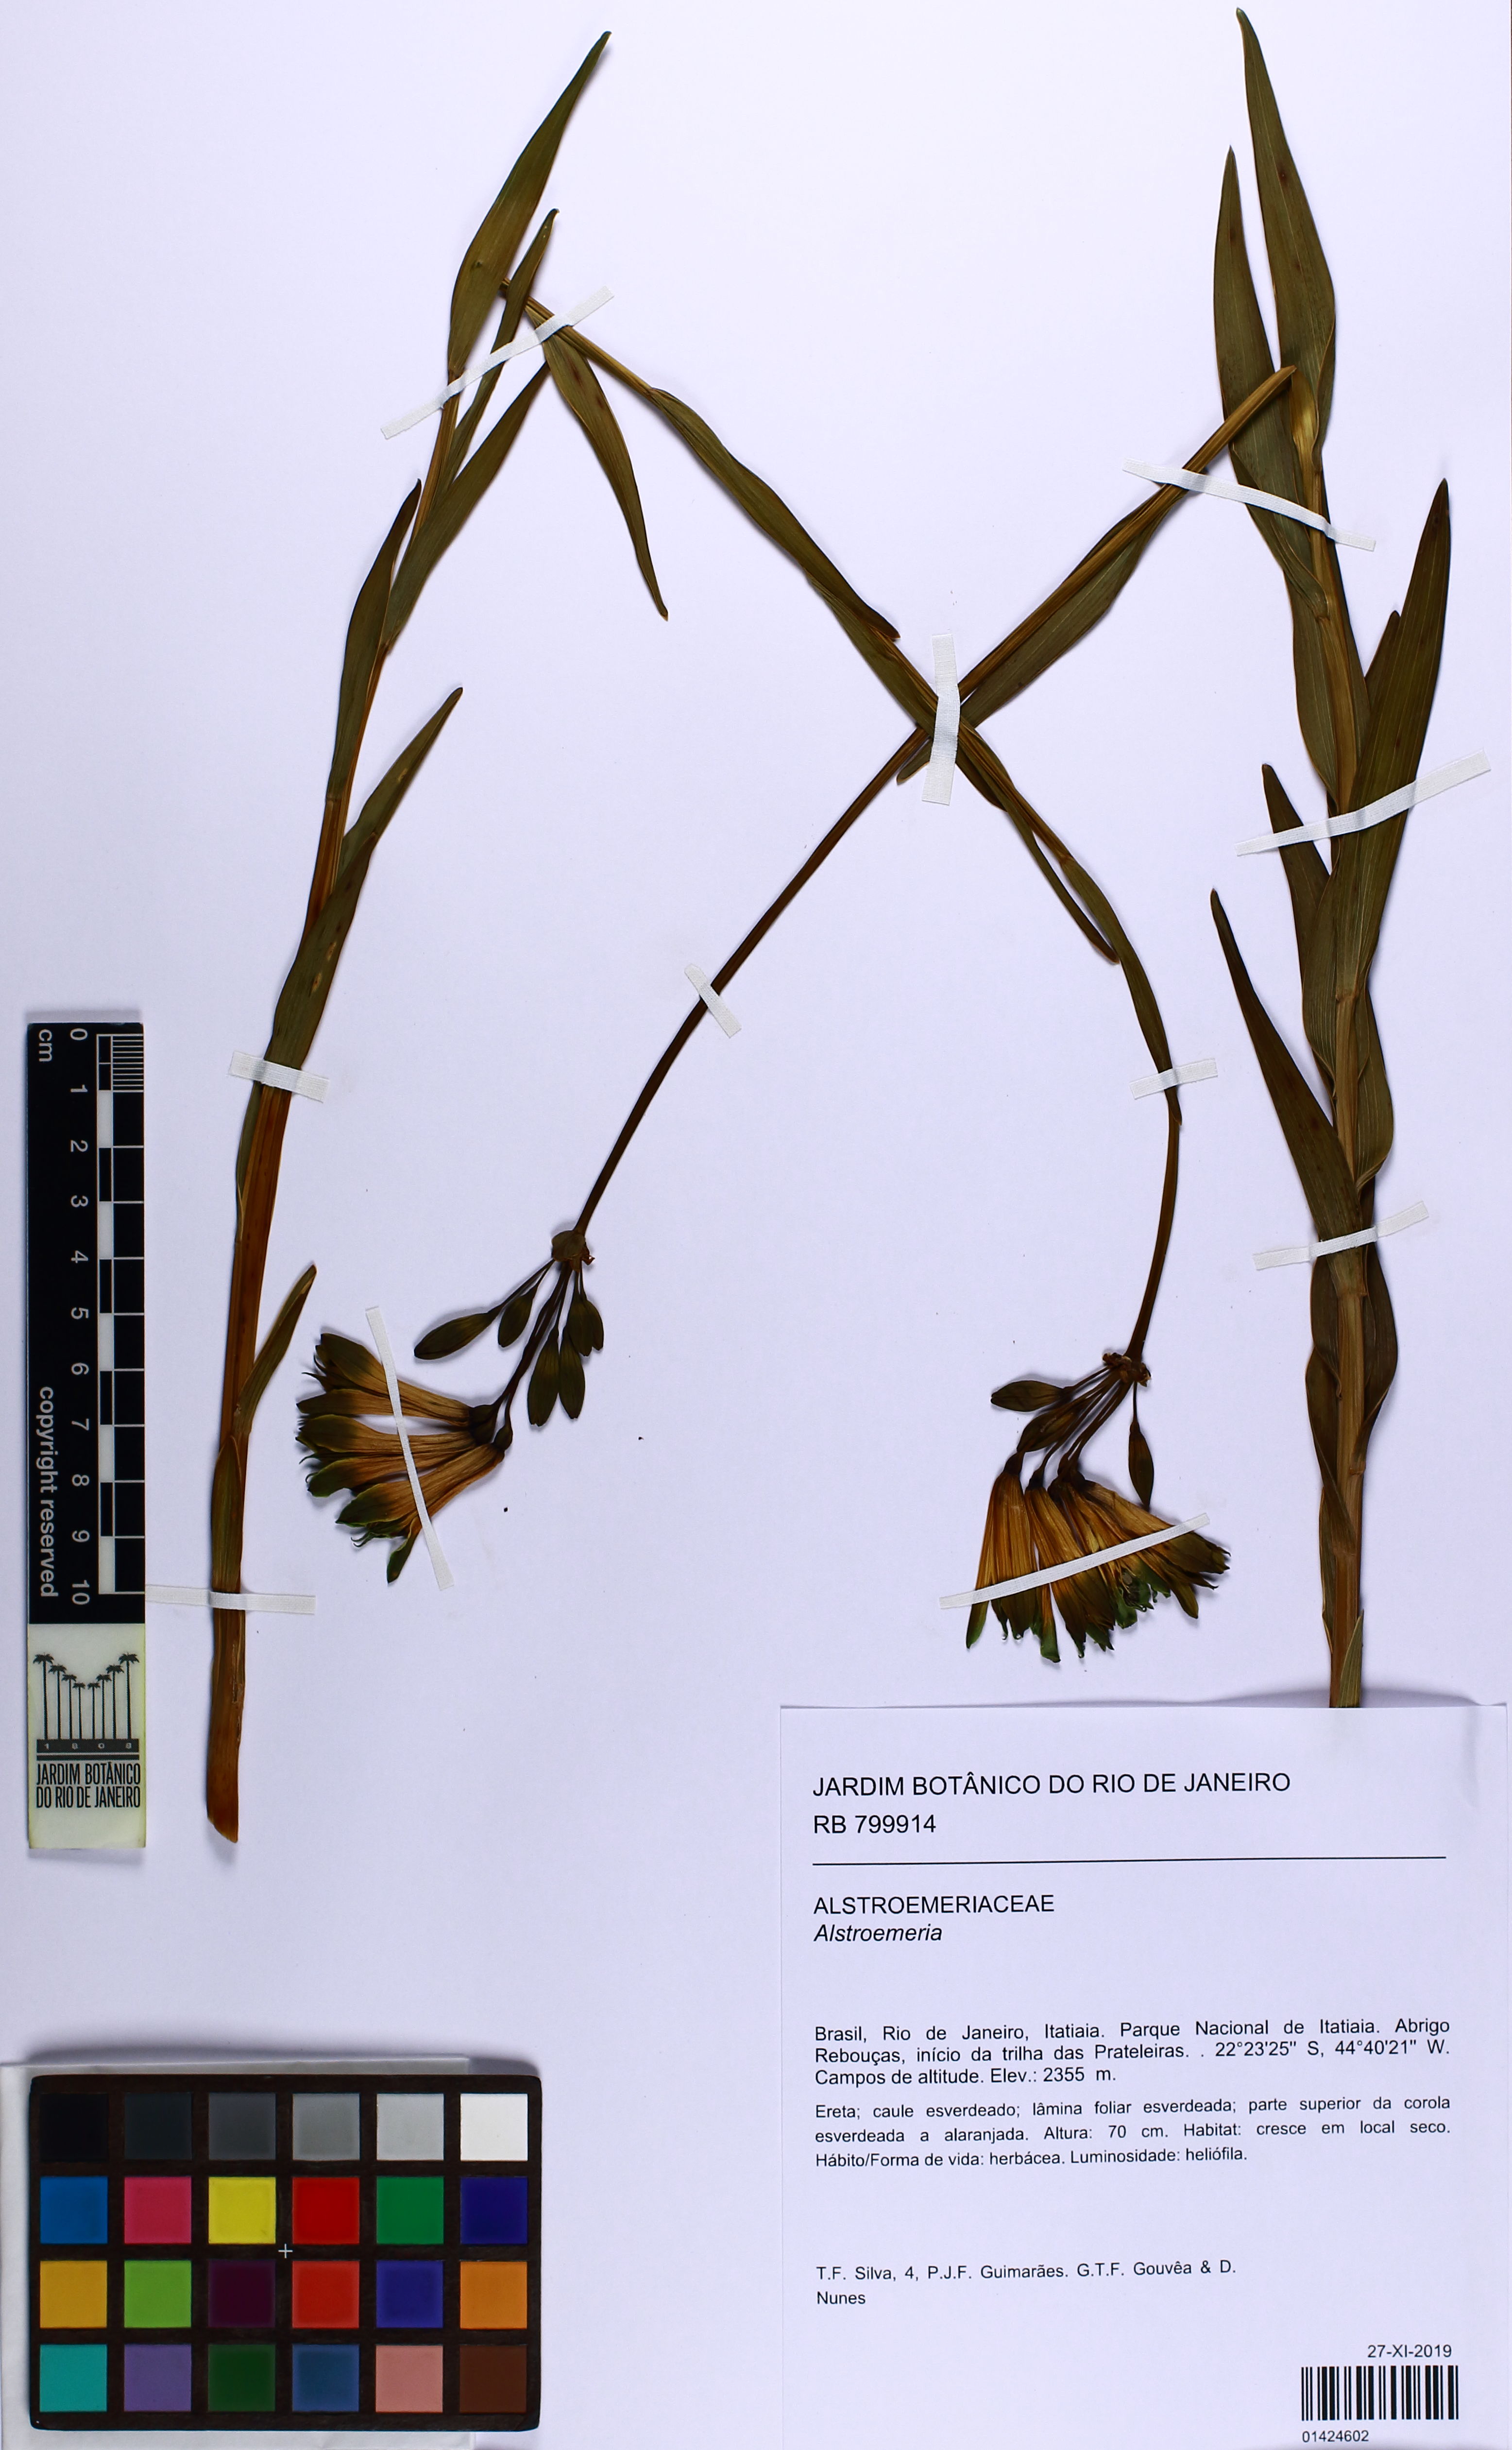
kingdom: Plantae
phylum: Tracheophyta
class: Liliopsida
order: Liliales
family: Alstroemeriaceae
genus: Alstroemeria
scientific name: Alstroemeria
